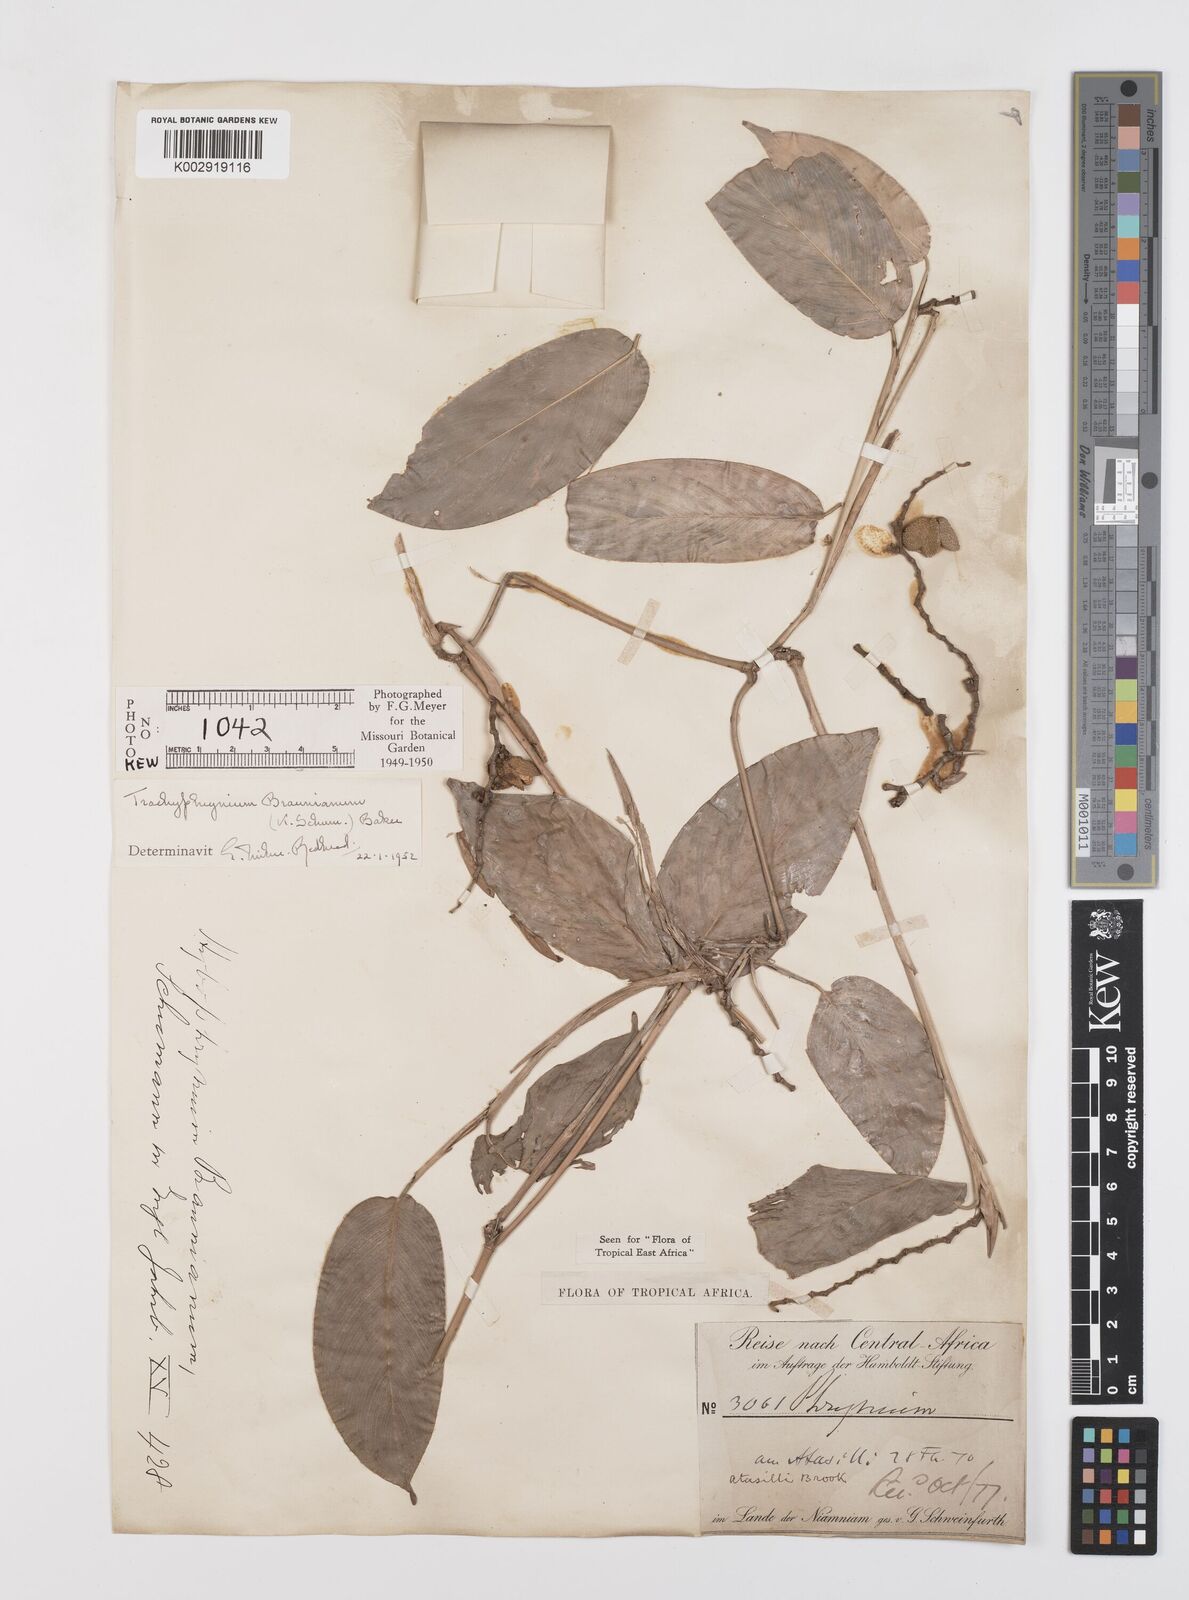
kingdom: Plantae
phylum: Tracheophyta
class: Liliopsida
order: Zingiberales
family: Marantaceae
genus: Trachyphrynium
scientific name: Trachyphrynium braunianum
